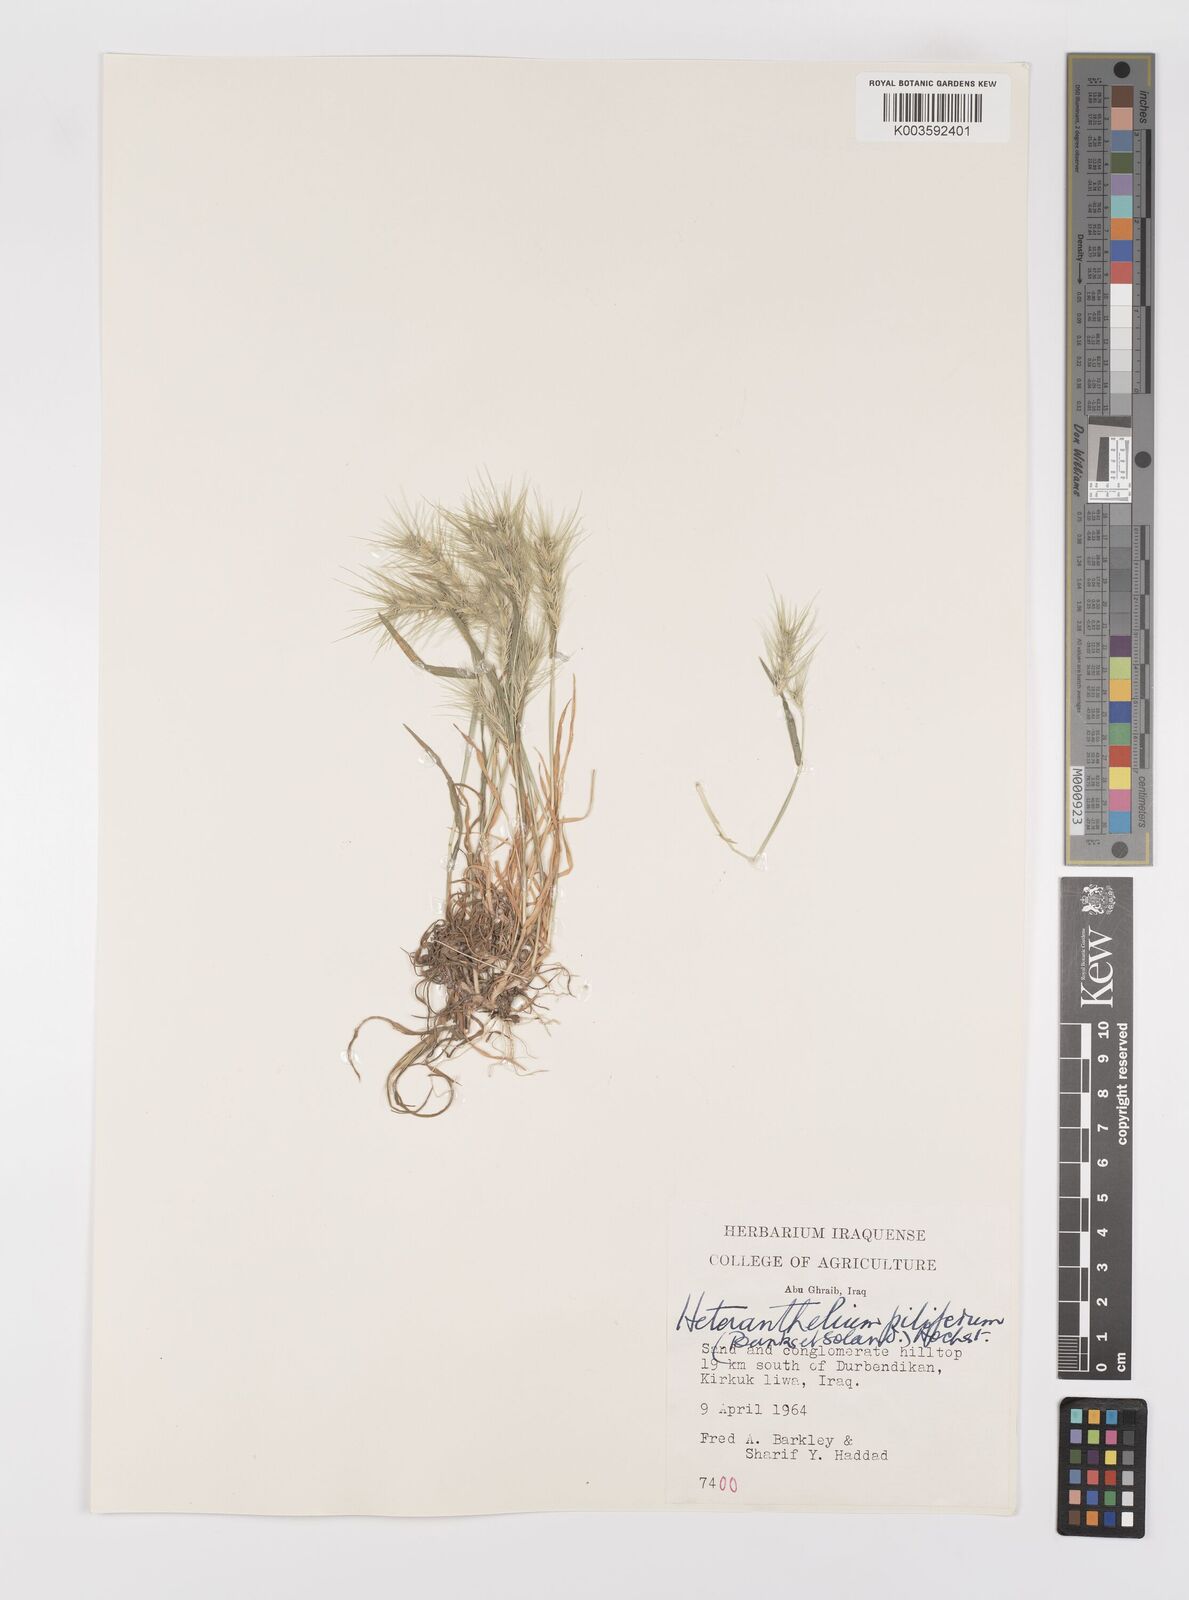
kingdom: Plantae
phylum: Tracheophyta
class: Liliopsida
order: Poales
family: Poaceae
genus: Heteranthelium
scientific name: Heteranthelium piliferum
